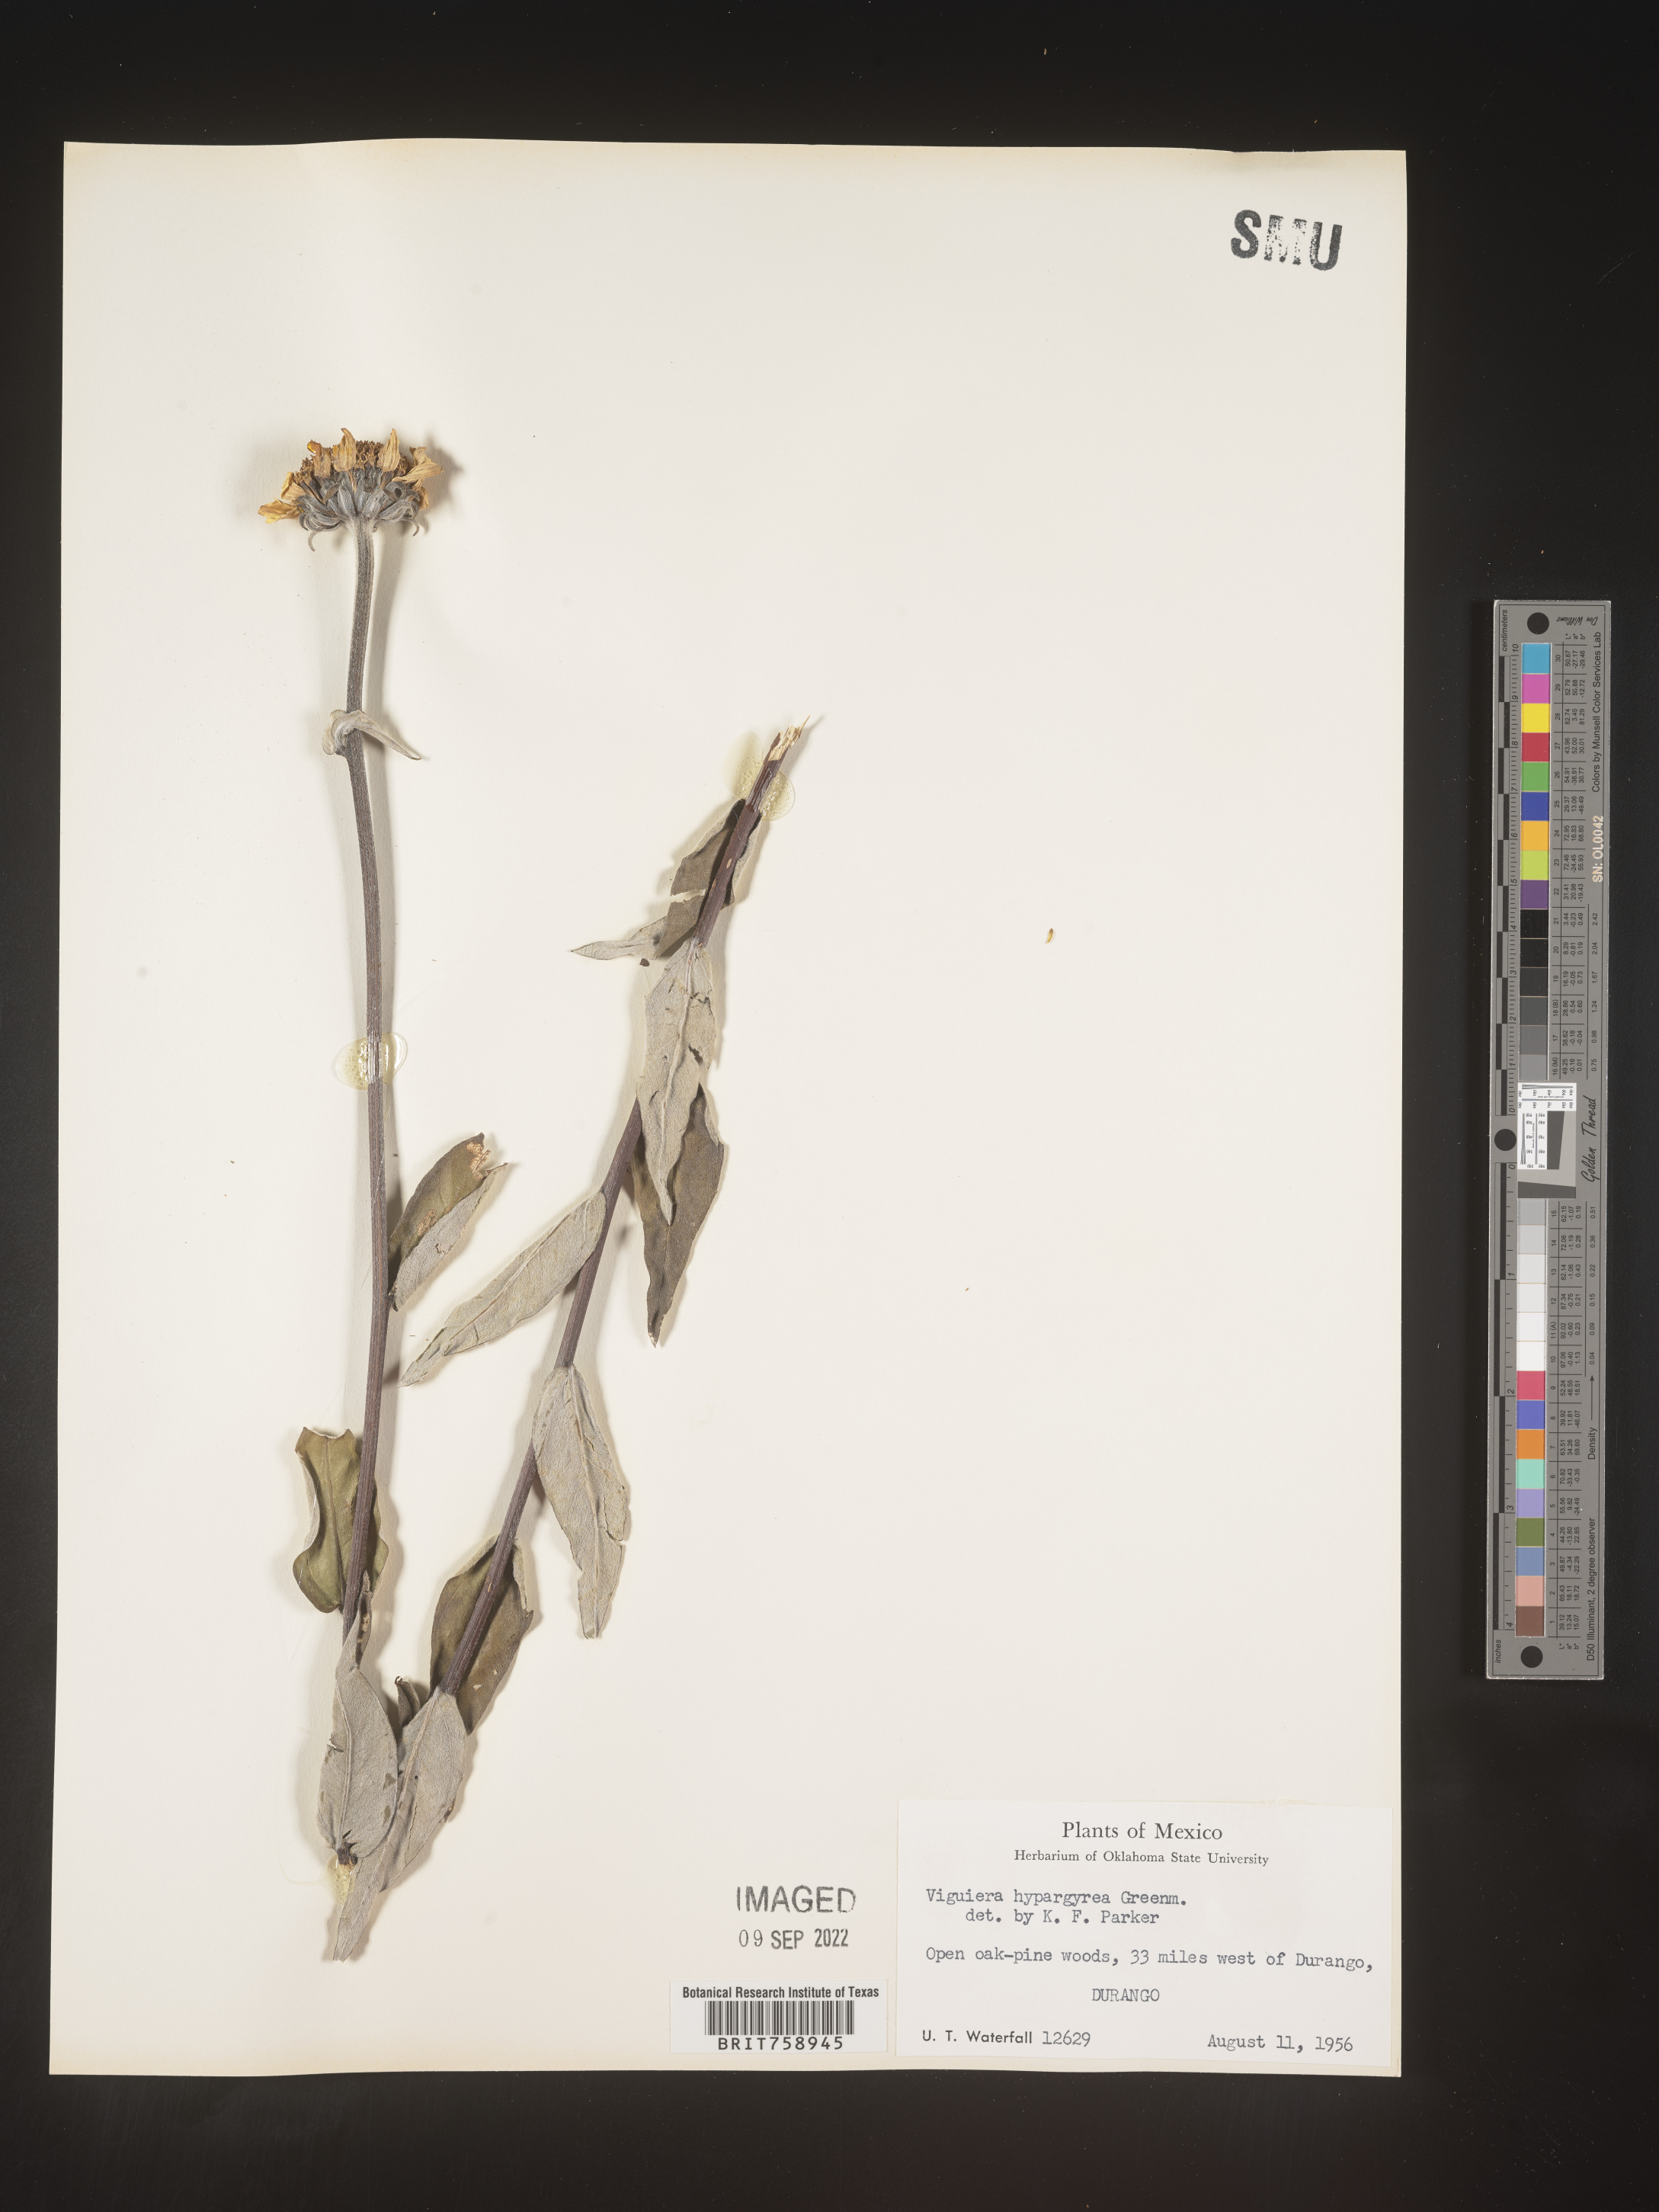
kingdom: Plantae
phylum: Tracheophyta
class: Magnoliopsida
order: Asterales
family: Asteraceae
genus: Viguiera
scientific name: Viguiera
